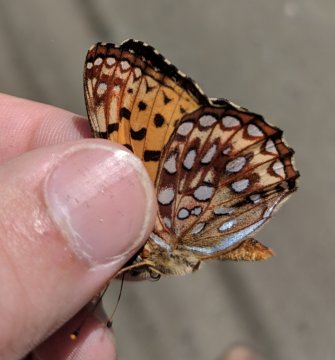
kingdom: Animalia
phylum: Arthropoda
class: Insecta
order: Lepidoptera
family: Nymphalidae
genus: Speyeria
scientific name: Speyeria atlantis
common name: Atlantis Fritillary
